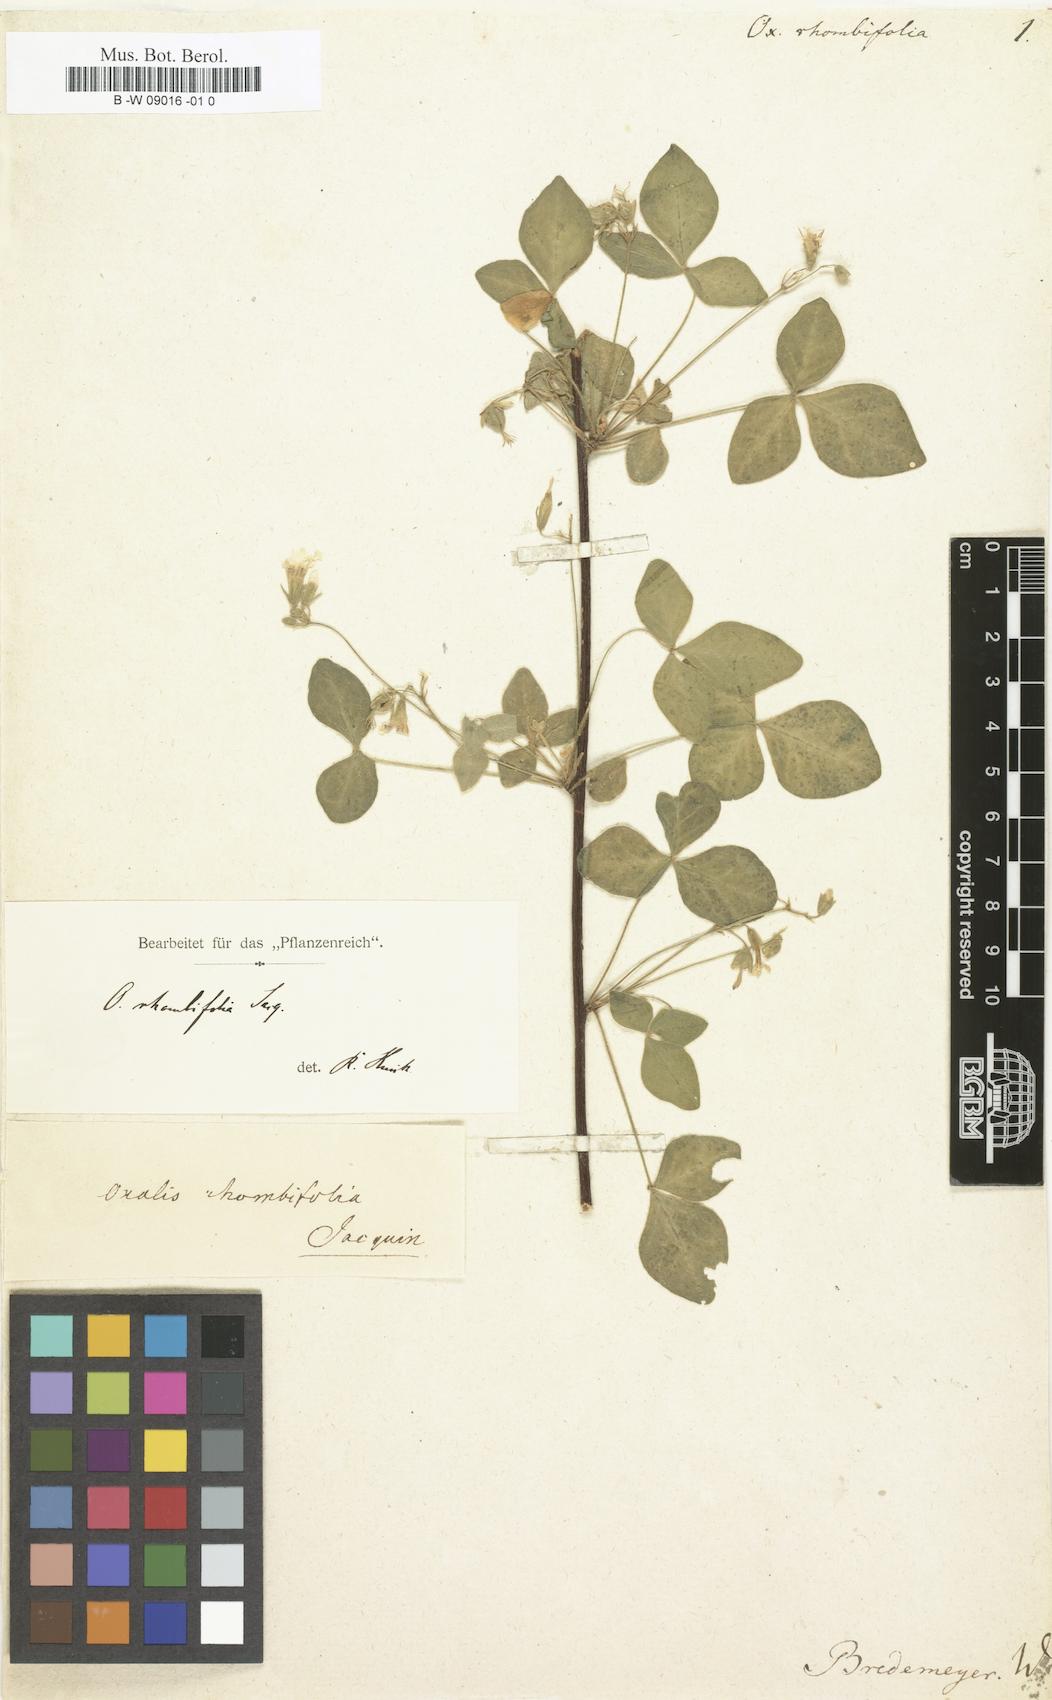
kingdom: Plantae
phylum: Tracheophyta
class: Magnoliopsida
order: Oxalidales
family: Oxalidaceae
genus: Oxalis
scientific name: Oxalis rhombifolia
